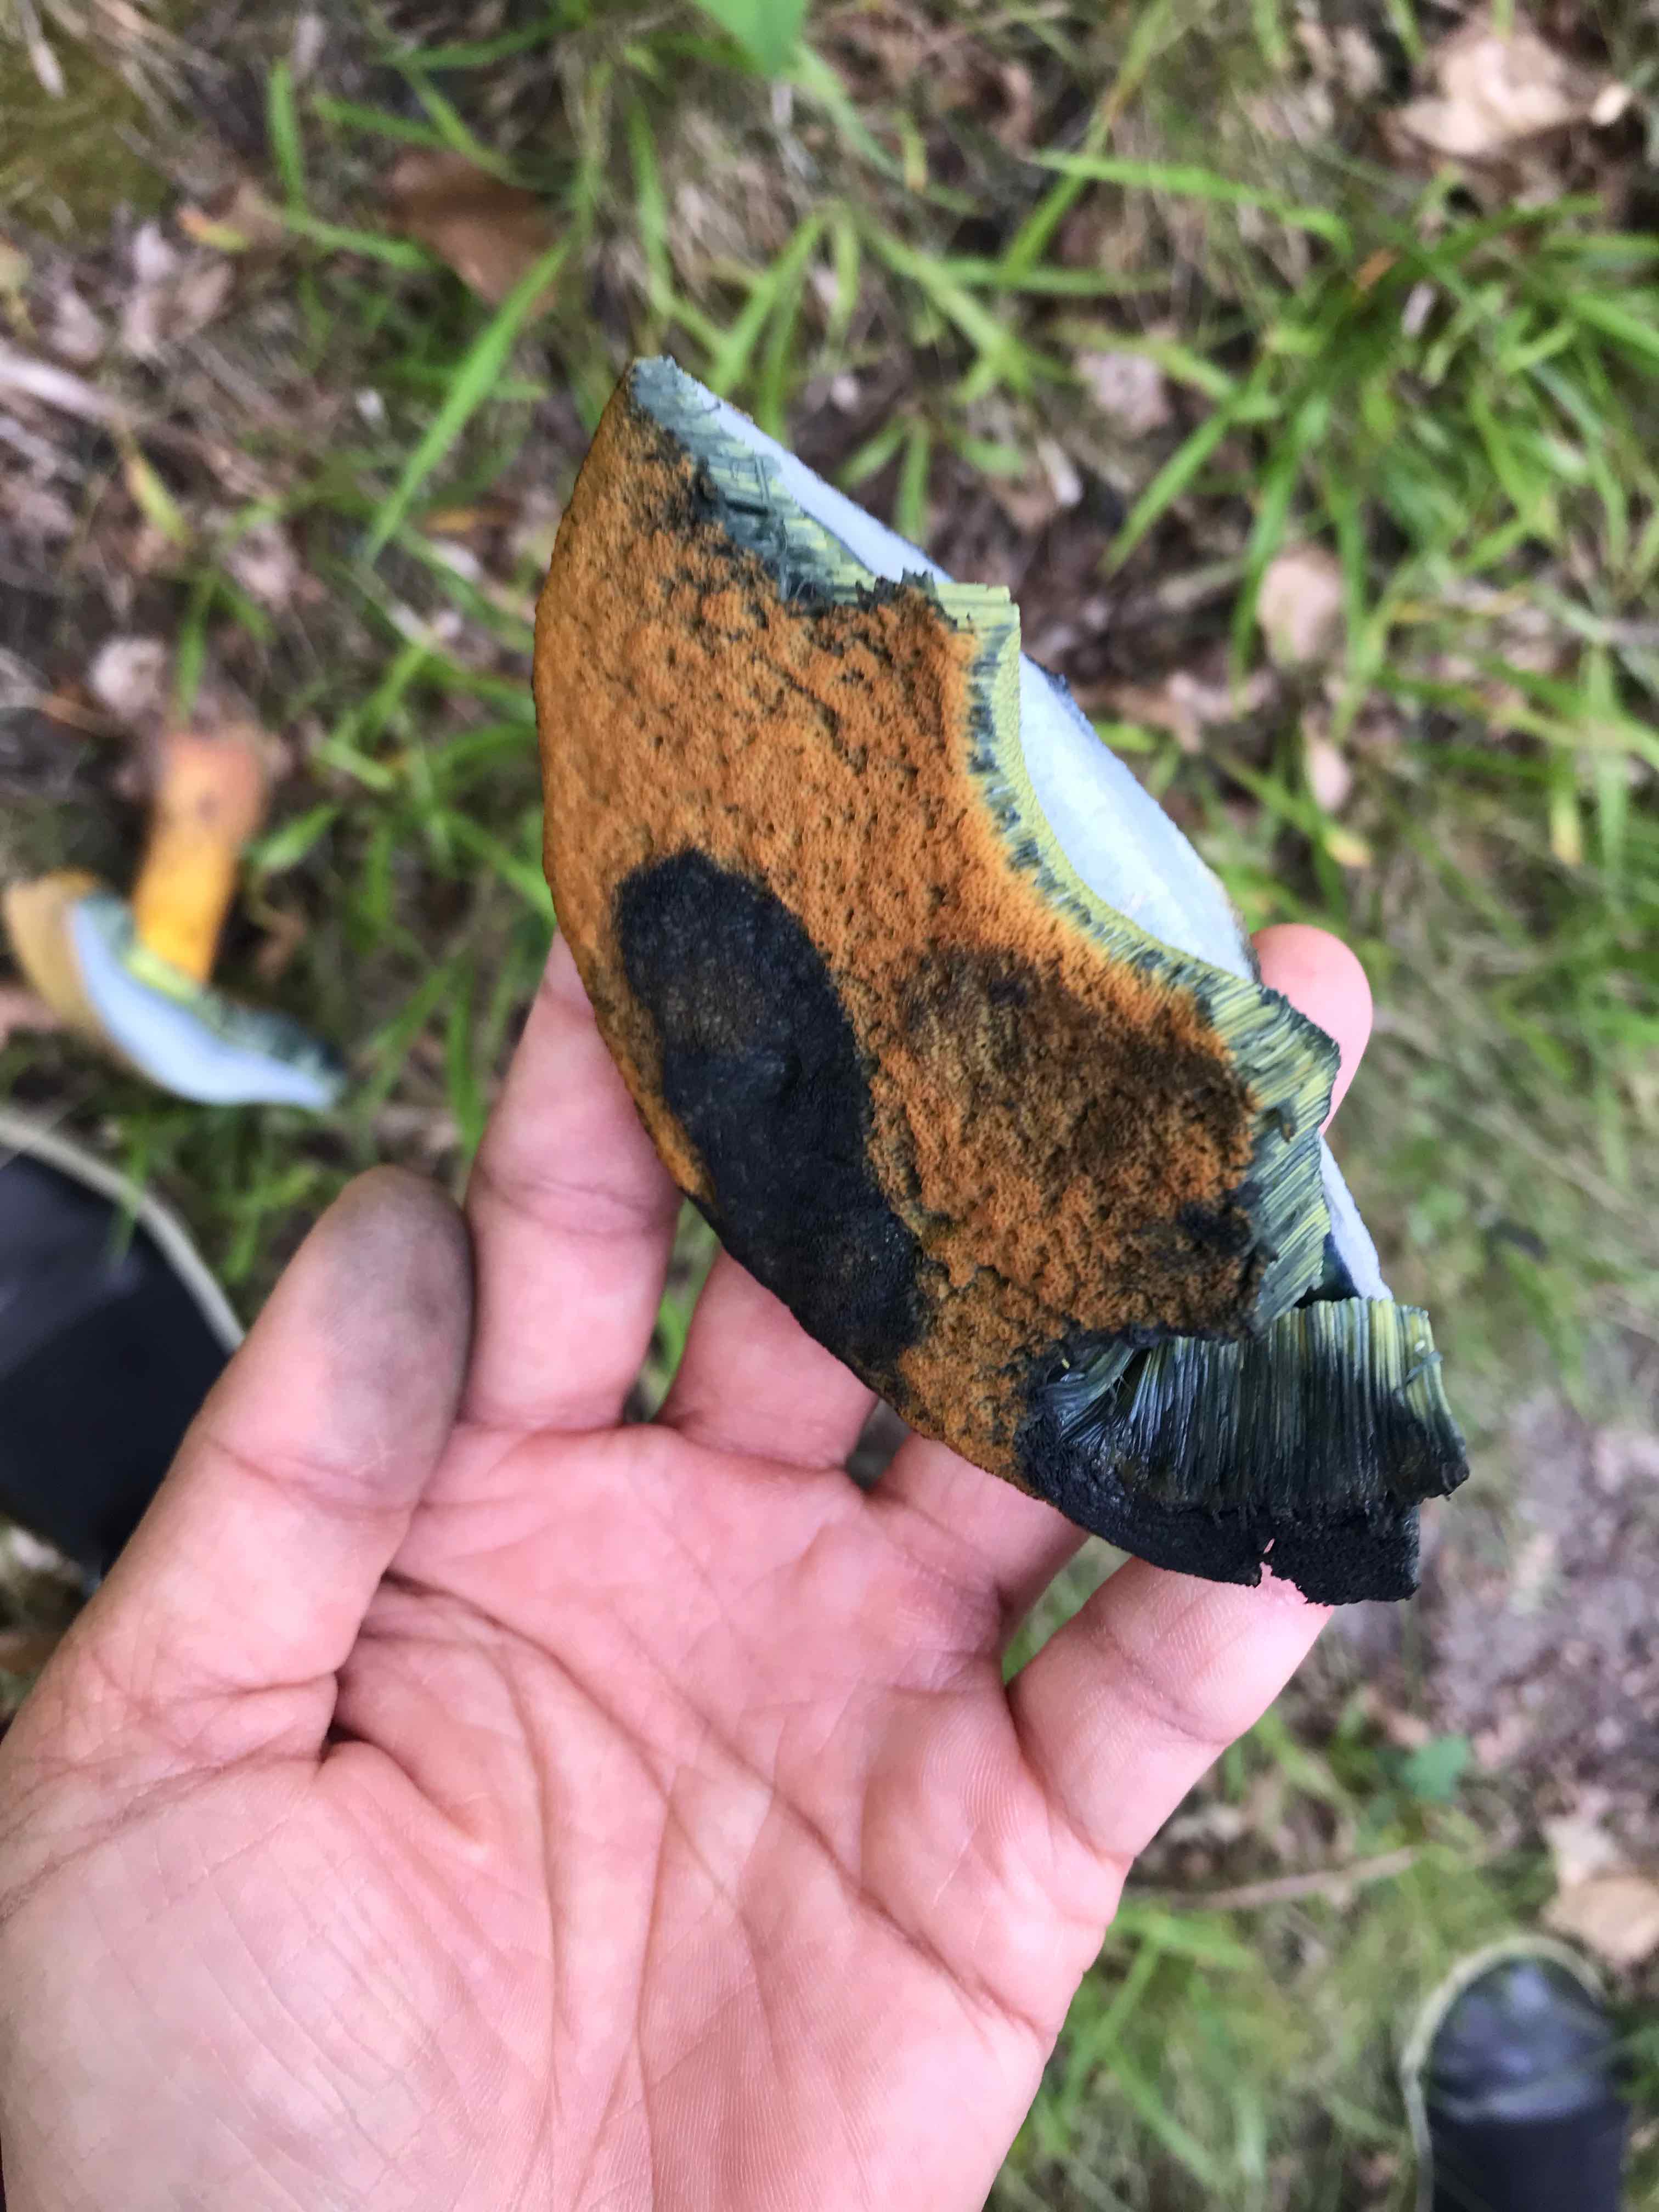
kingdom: Fungi
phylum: Basidiomycota
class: Agaricomycetes
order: Boletales
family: Boletaceae
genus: Suillellus
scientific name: Suillellus luridus
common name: netstokket indigorørhat
